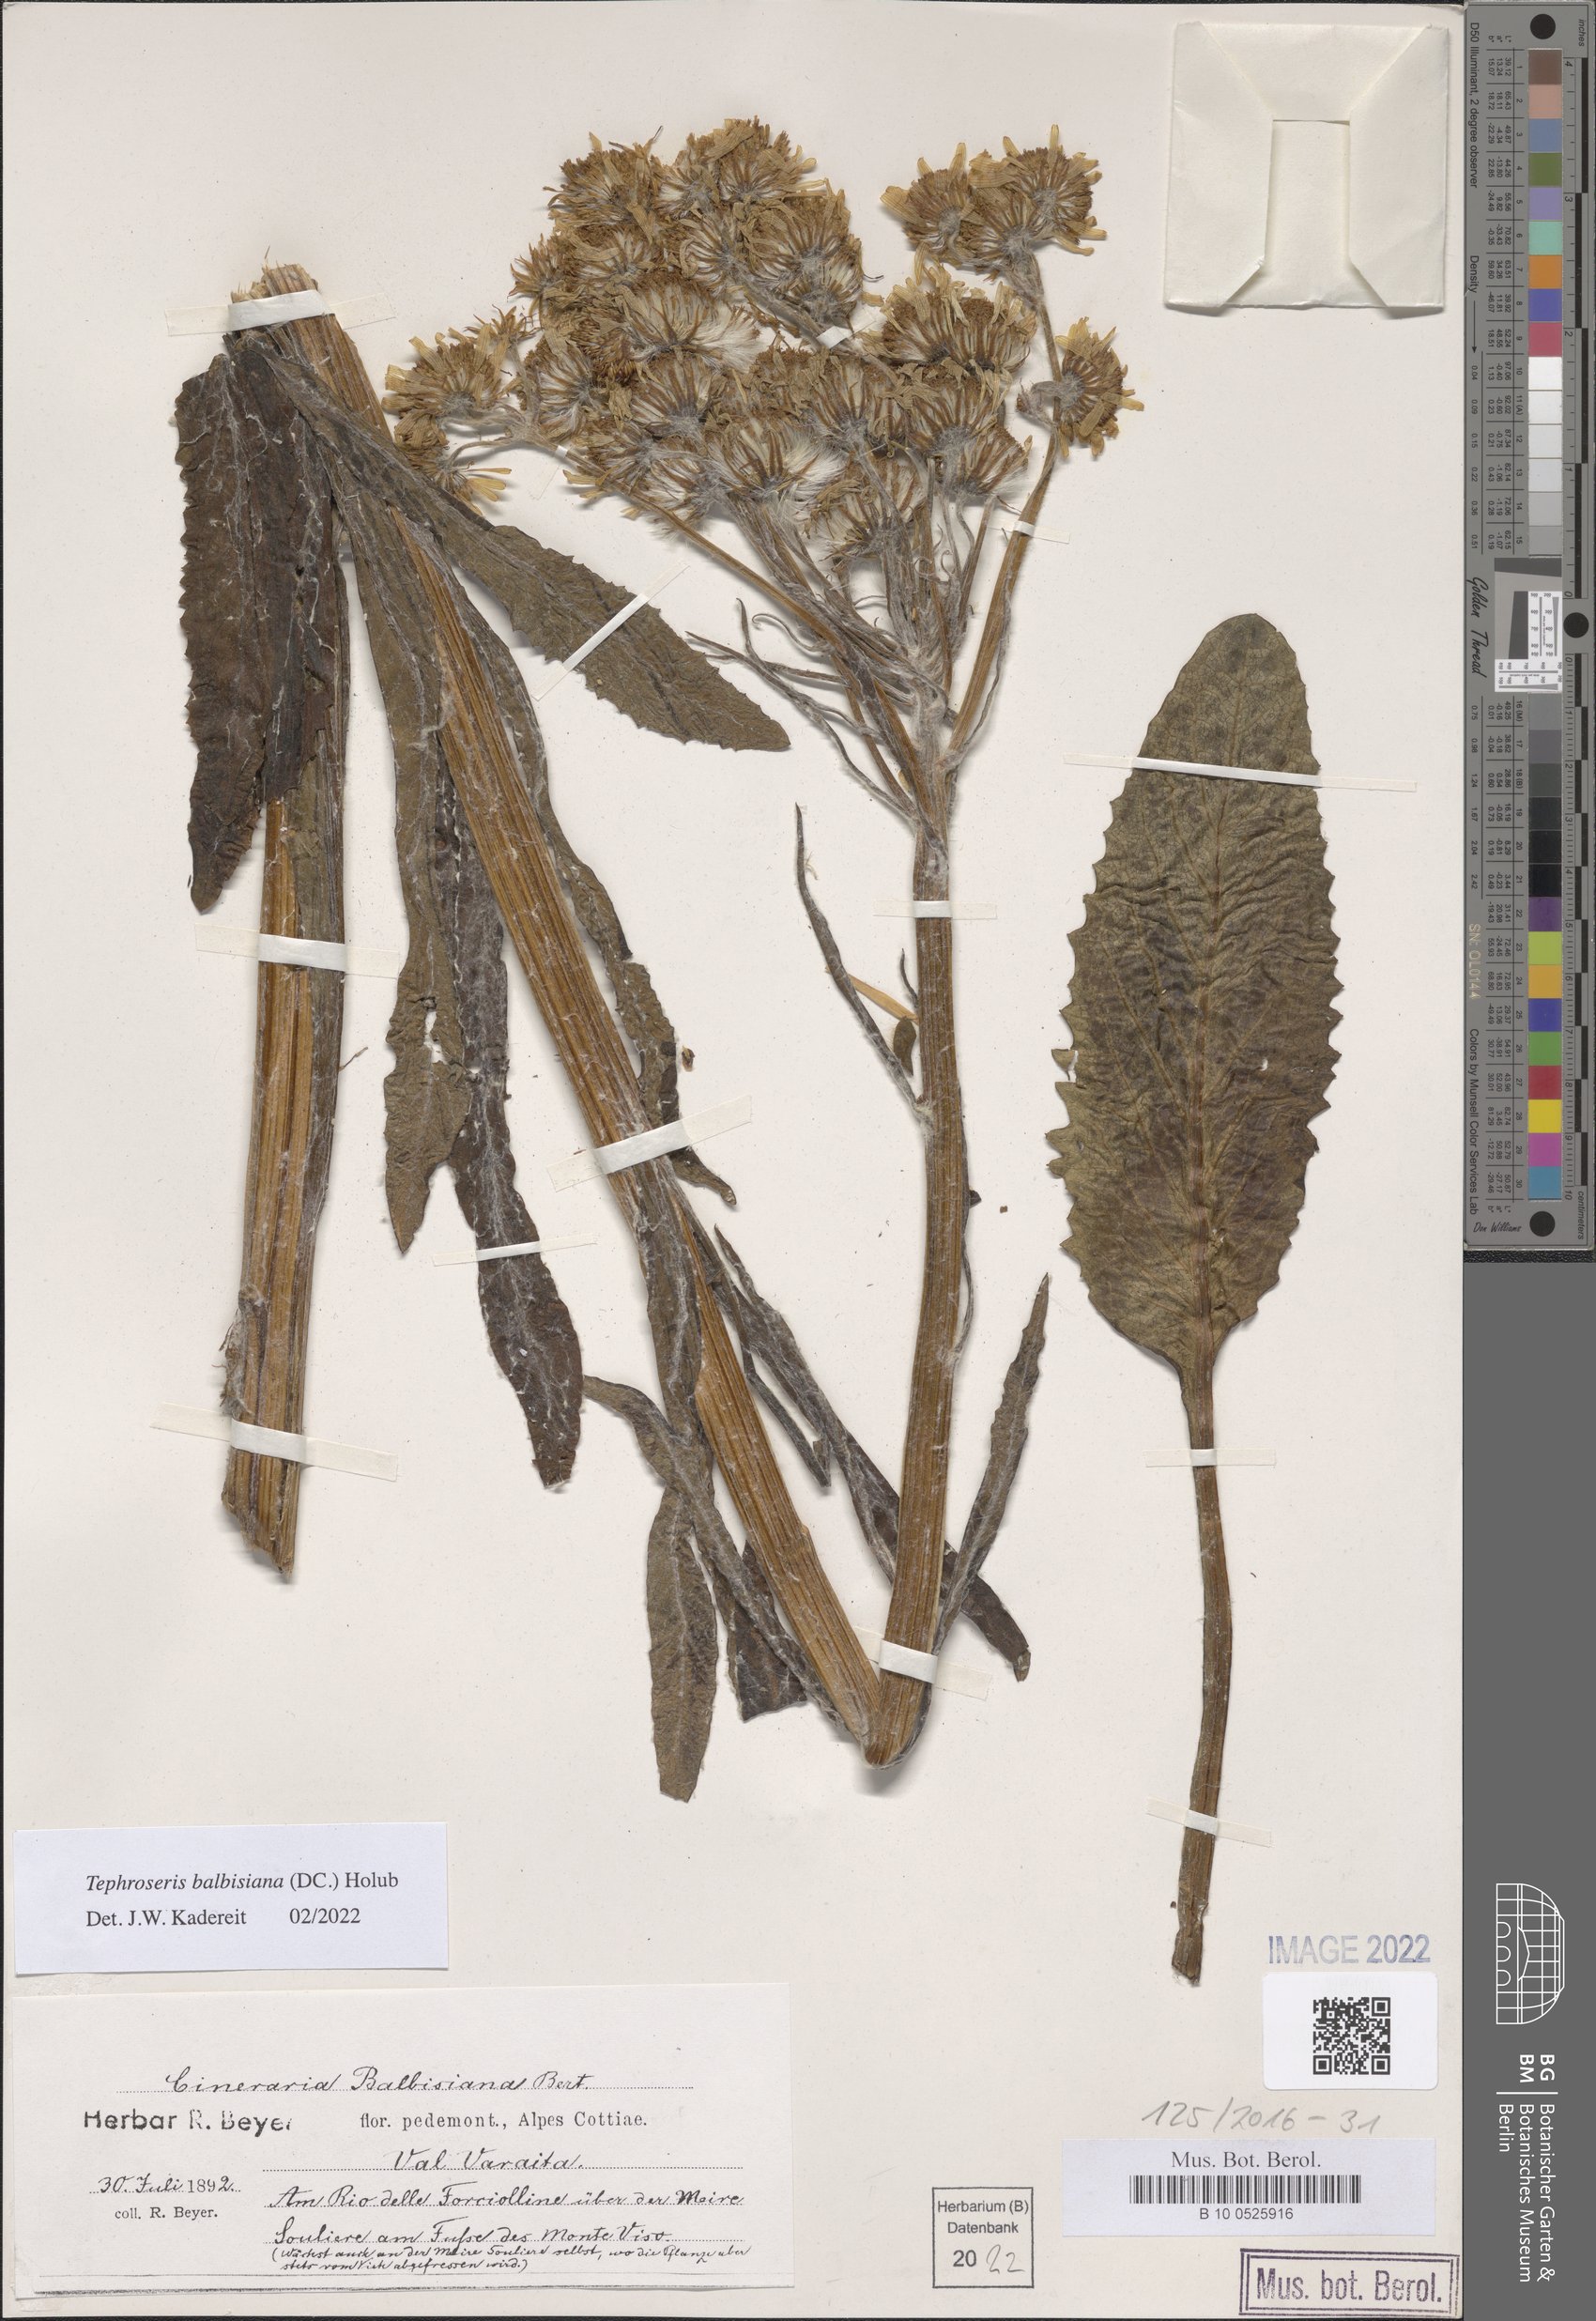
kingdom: Plantae
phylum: Tracheophyta
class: Magnoliopsida
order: Asterales
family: Asteraceae
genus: Tephroseris
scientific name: Tephroseris balbisiana
